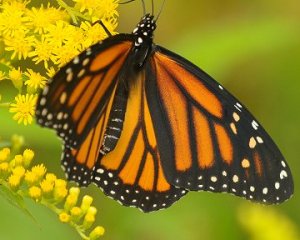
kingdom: Animalia
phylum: Arthropoda
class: Insecta
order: Lepidoptera
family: Nymphalidae
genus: Danaus
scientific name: Danaus plexippus
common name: Monarch
